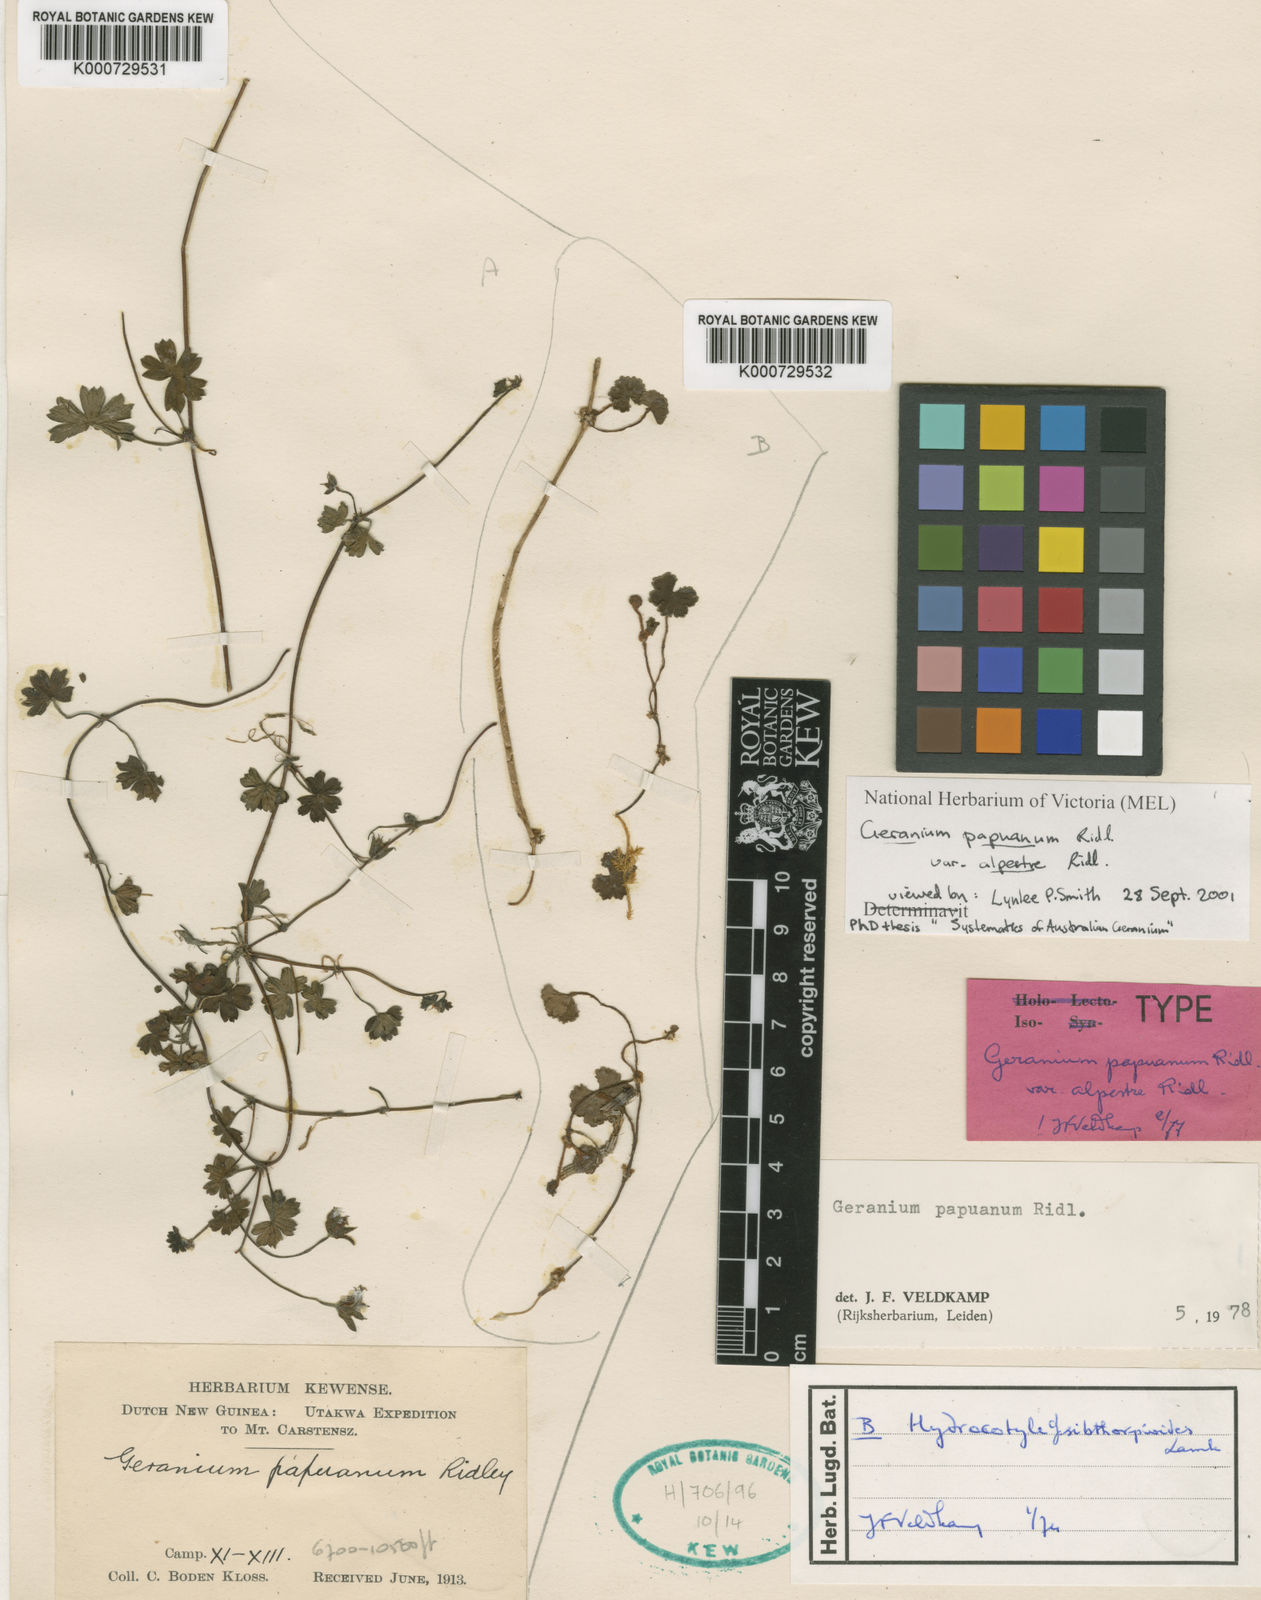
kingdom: Plantae
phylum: Tracheophyta
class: Magnoliopsida
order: Apiales
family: Araliaceae
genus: Hydrocotyle
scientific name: Hydrocotyle sibthorpioides
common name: Lawn marshpennywort
